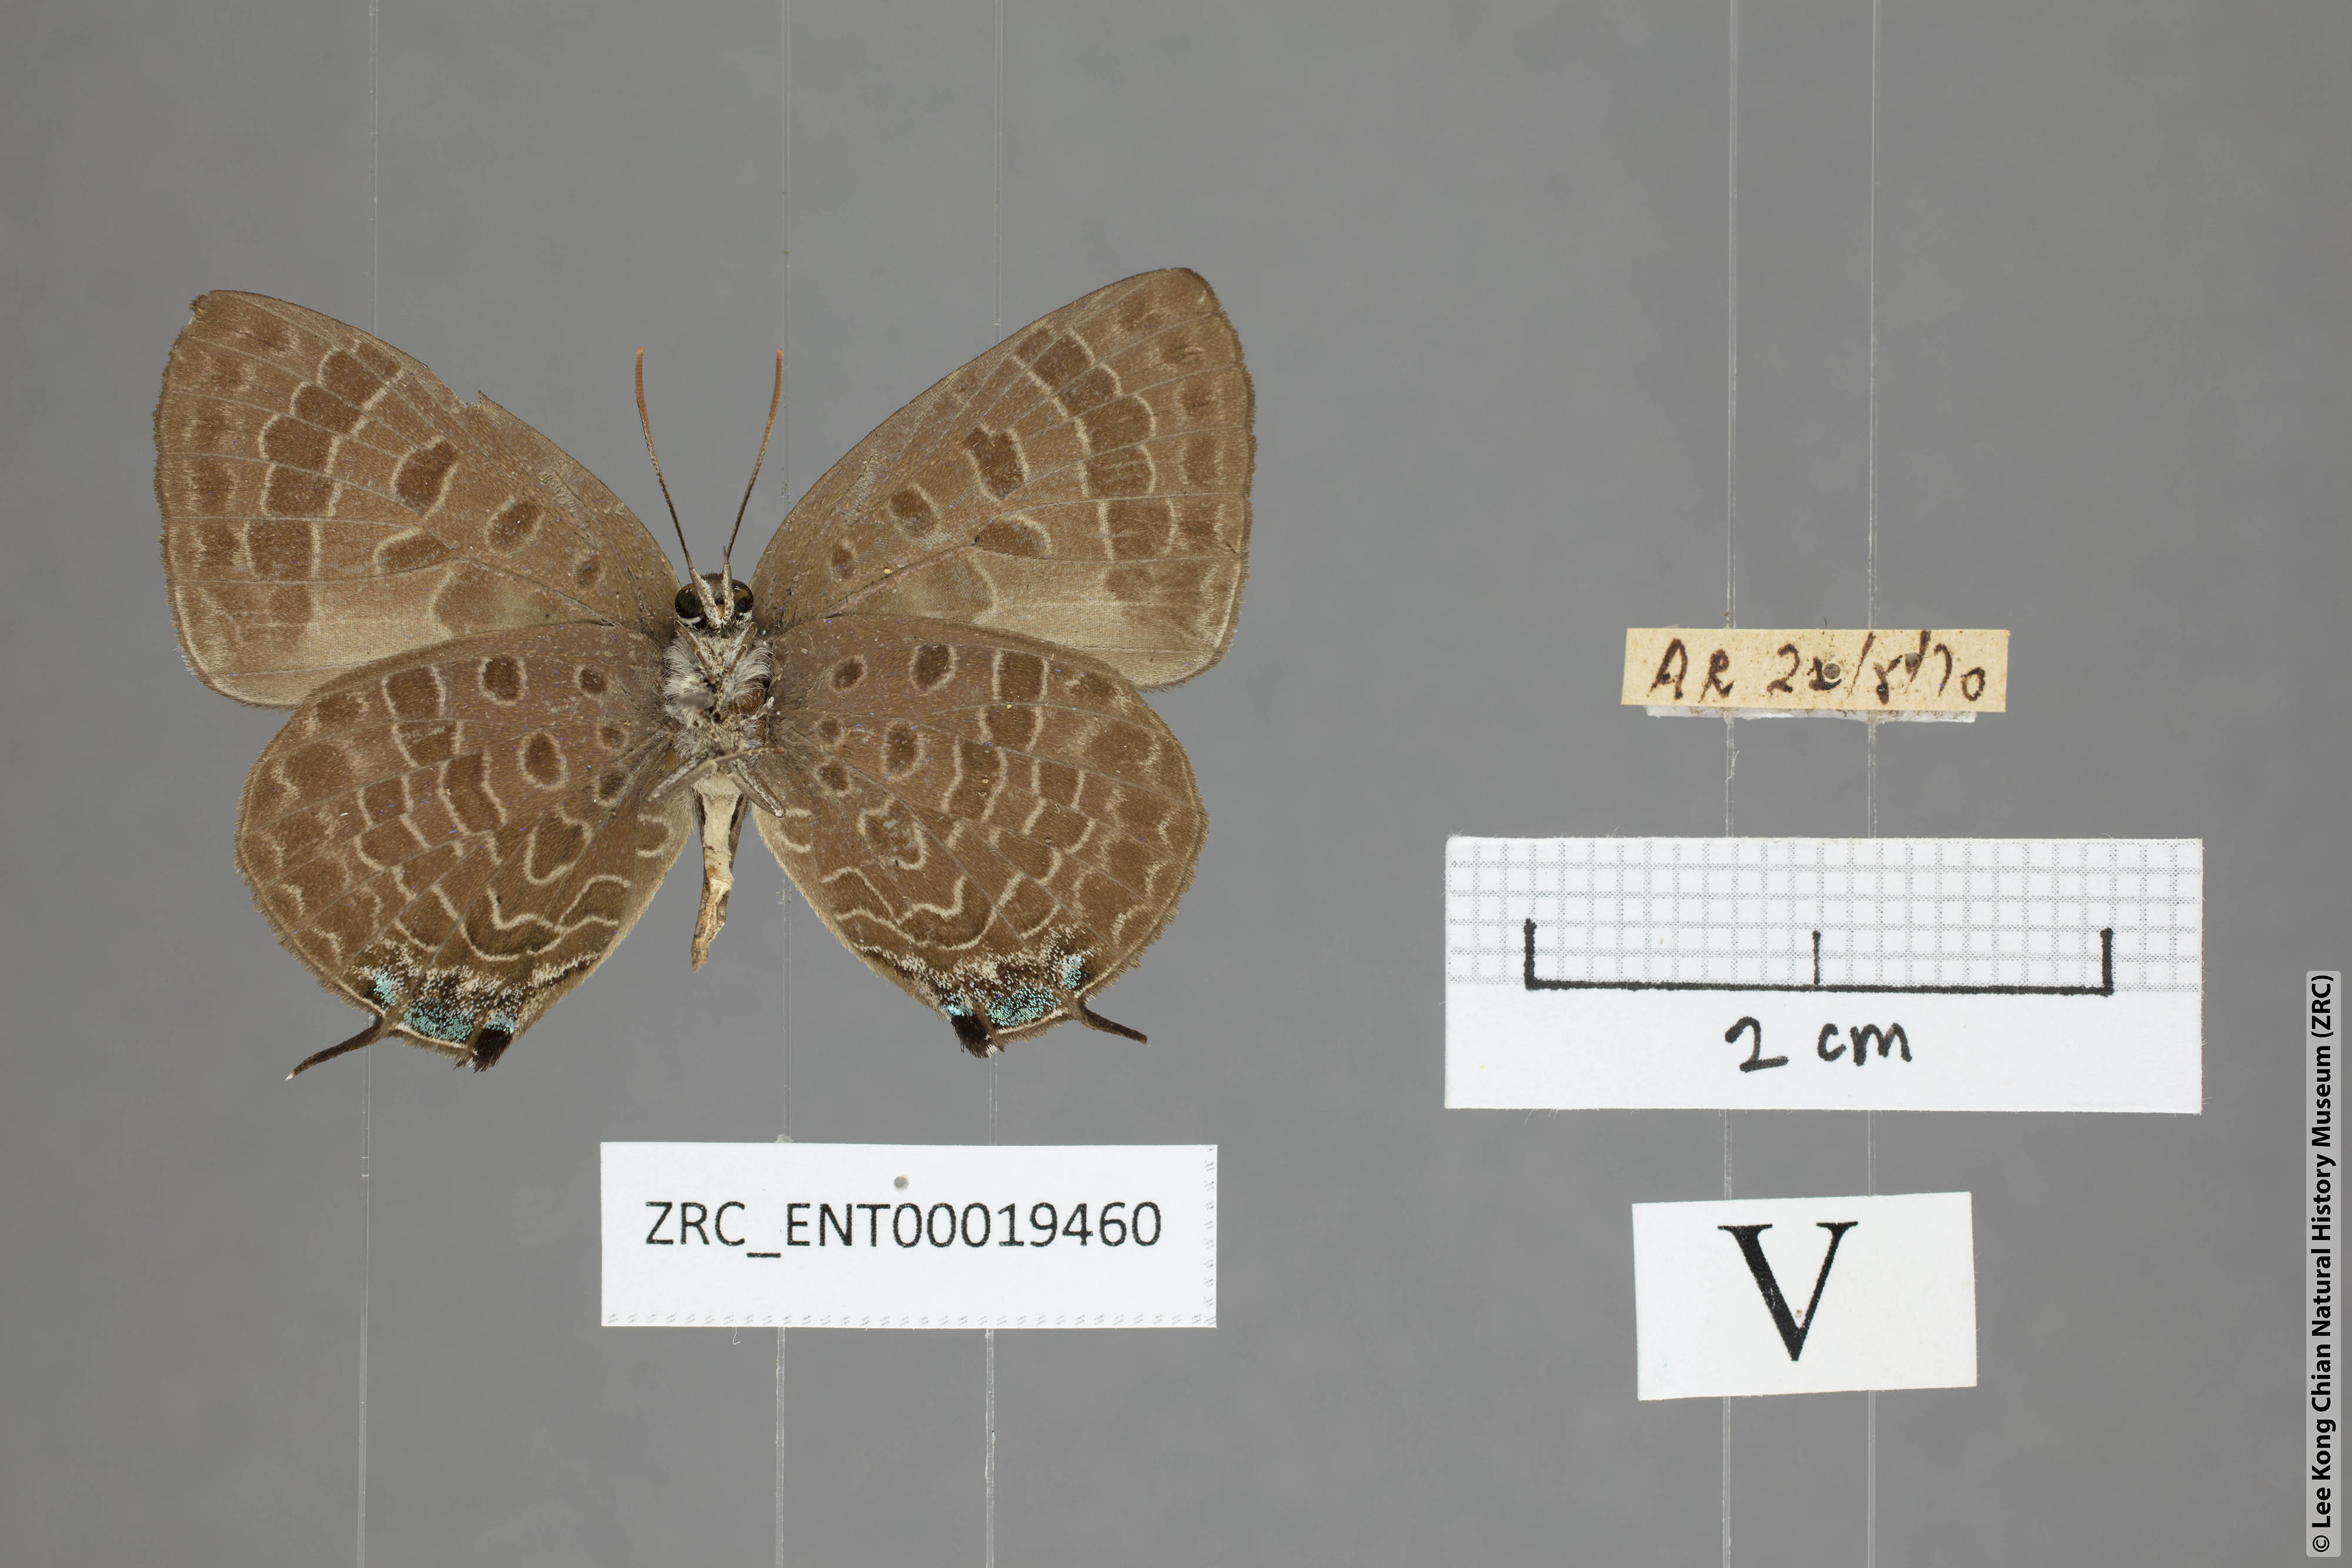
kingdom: Animalia
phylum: Arthropoda
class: Insecta
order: Lepidoptera
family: Lycaenidae
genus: Arhopala
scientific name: Arhopala azinis
